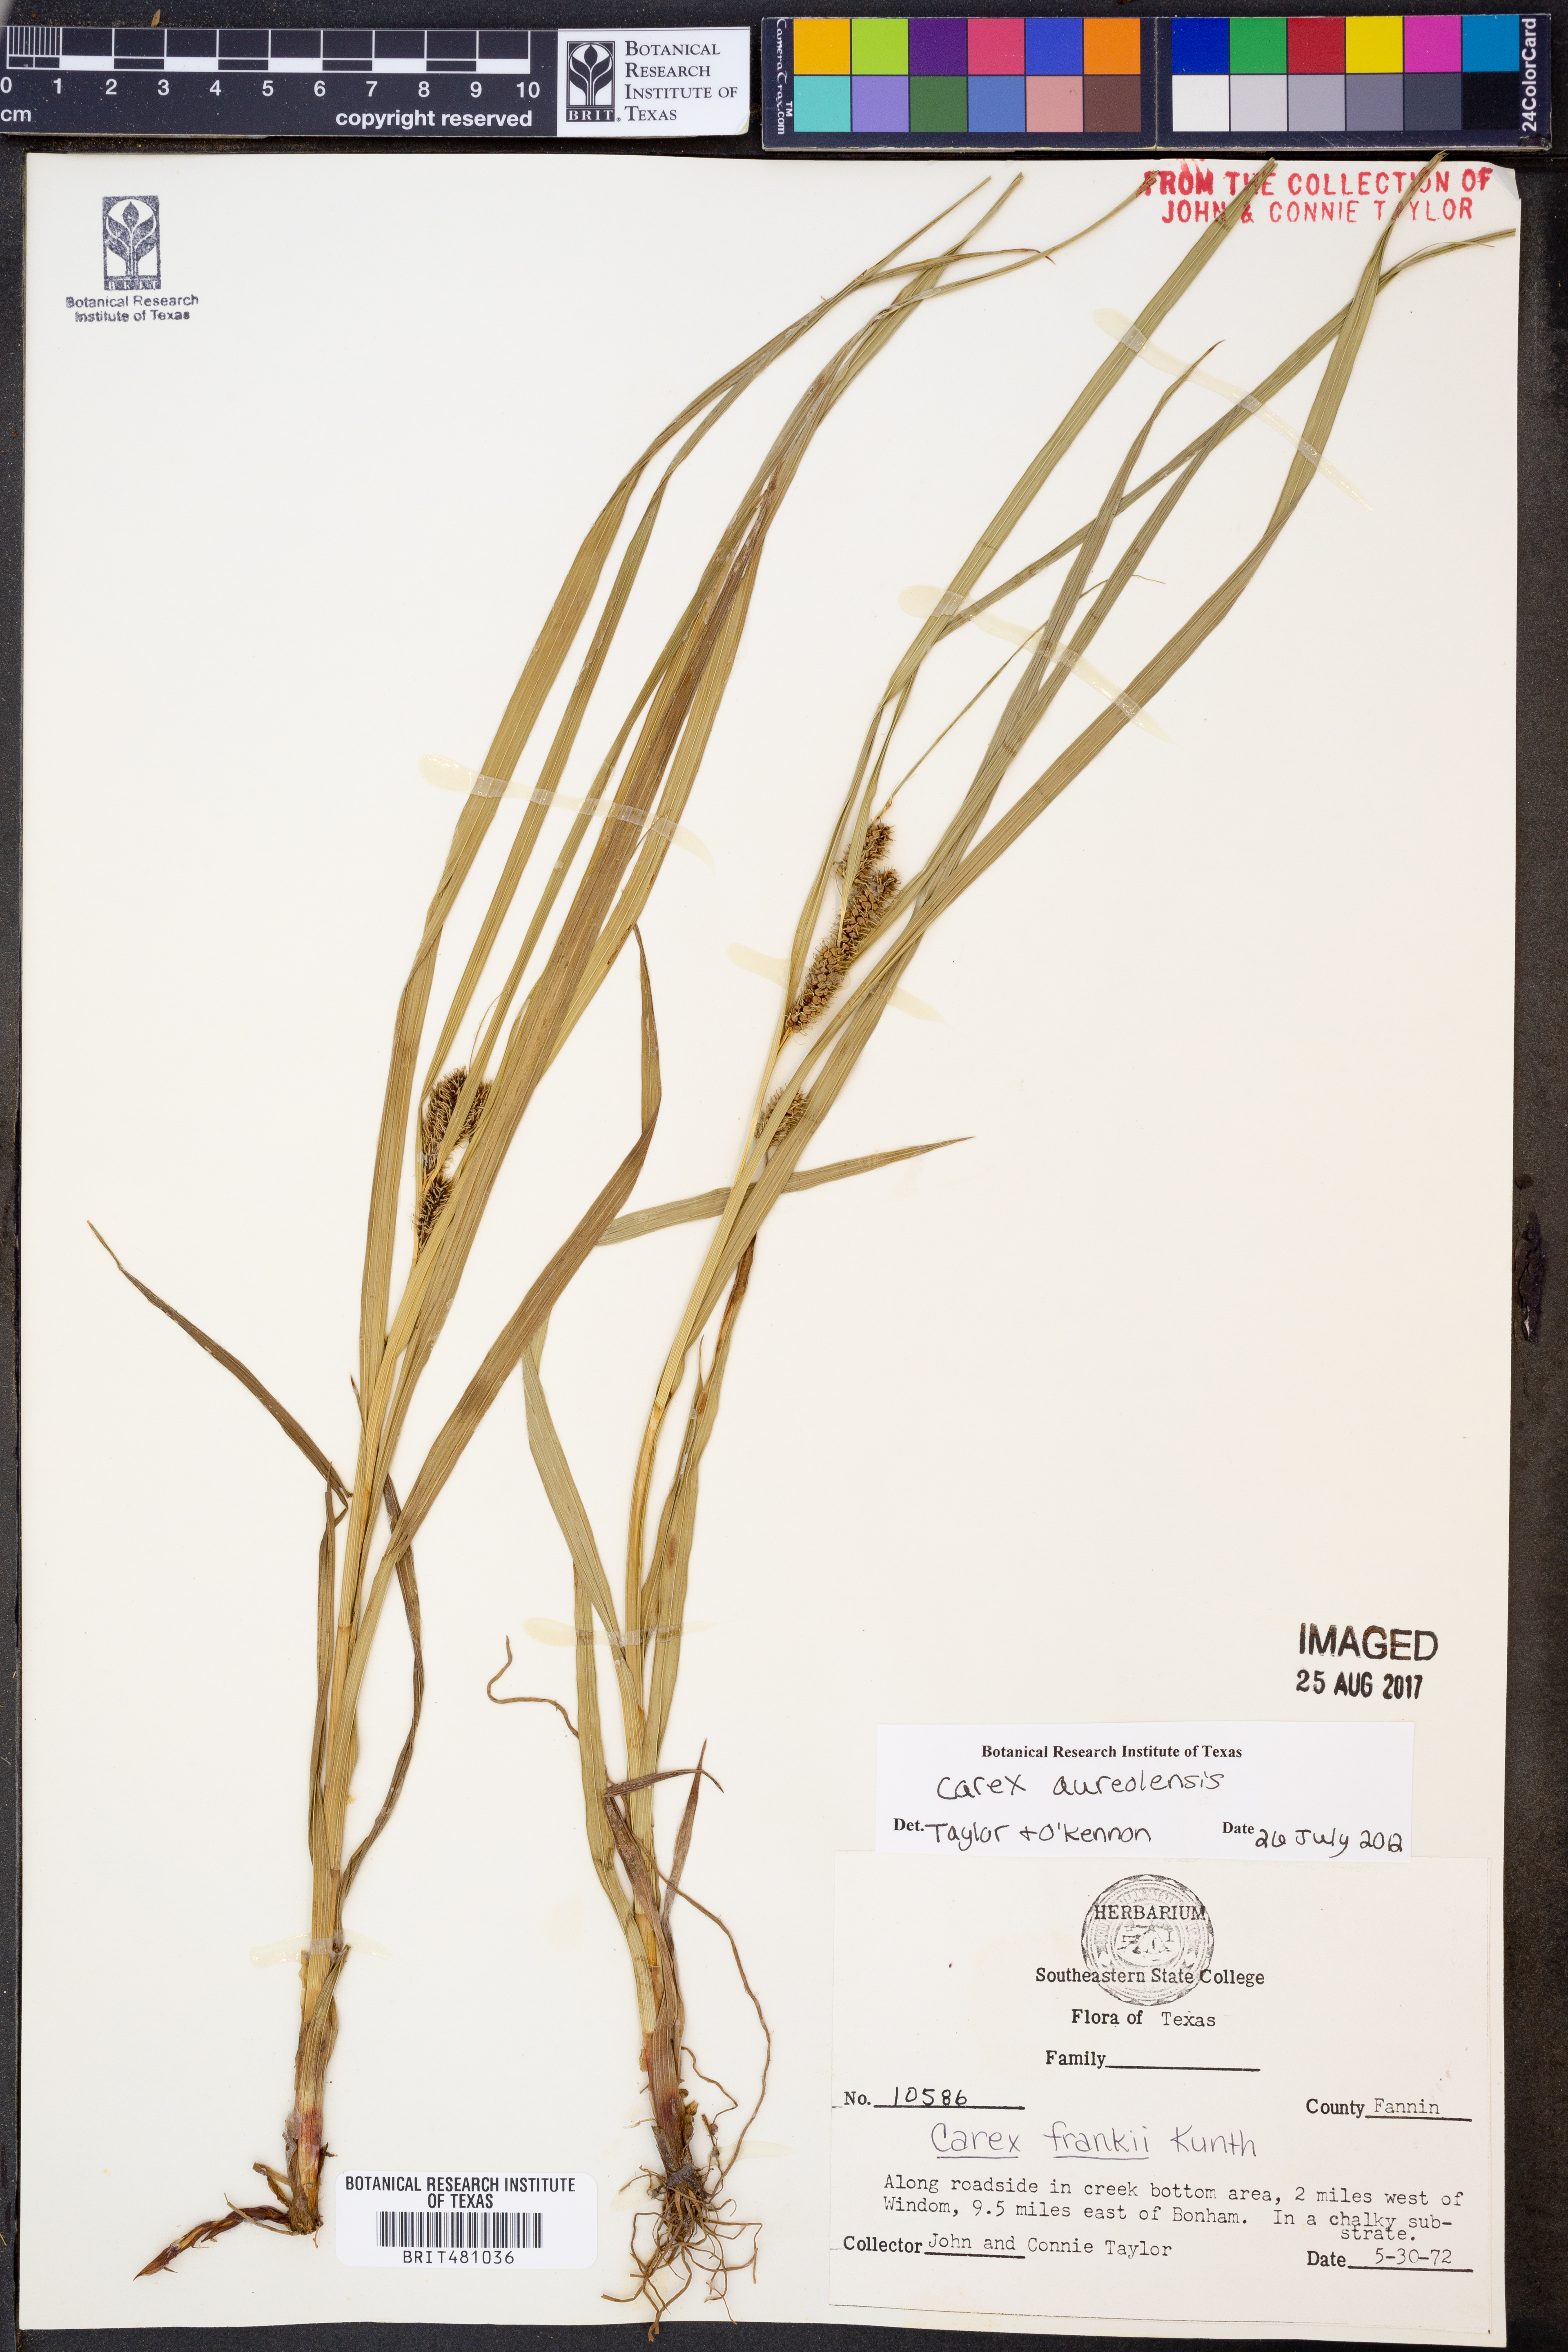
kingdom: Plantae
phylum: Tracheophyta
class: Liliopsida
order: Poales
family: Cyperaceae
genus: Carex
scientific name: Carex aureolensis
